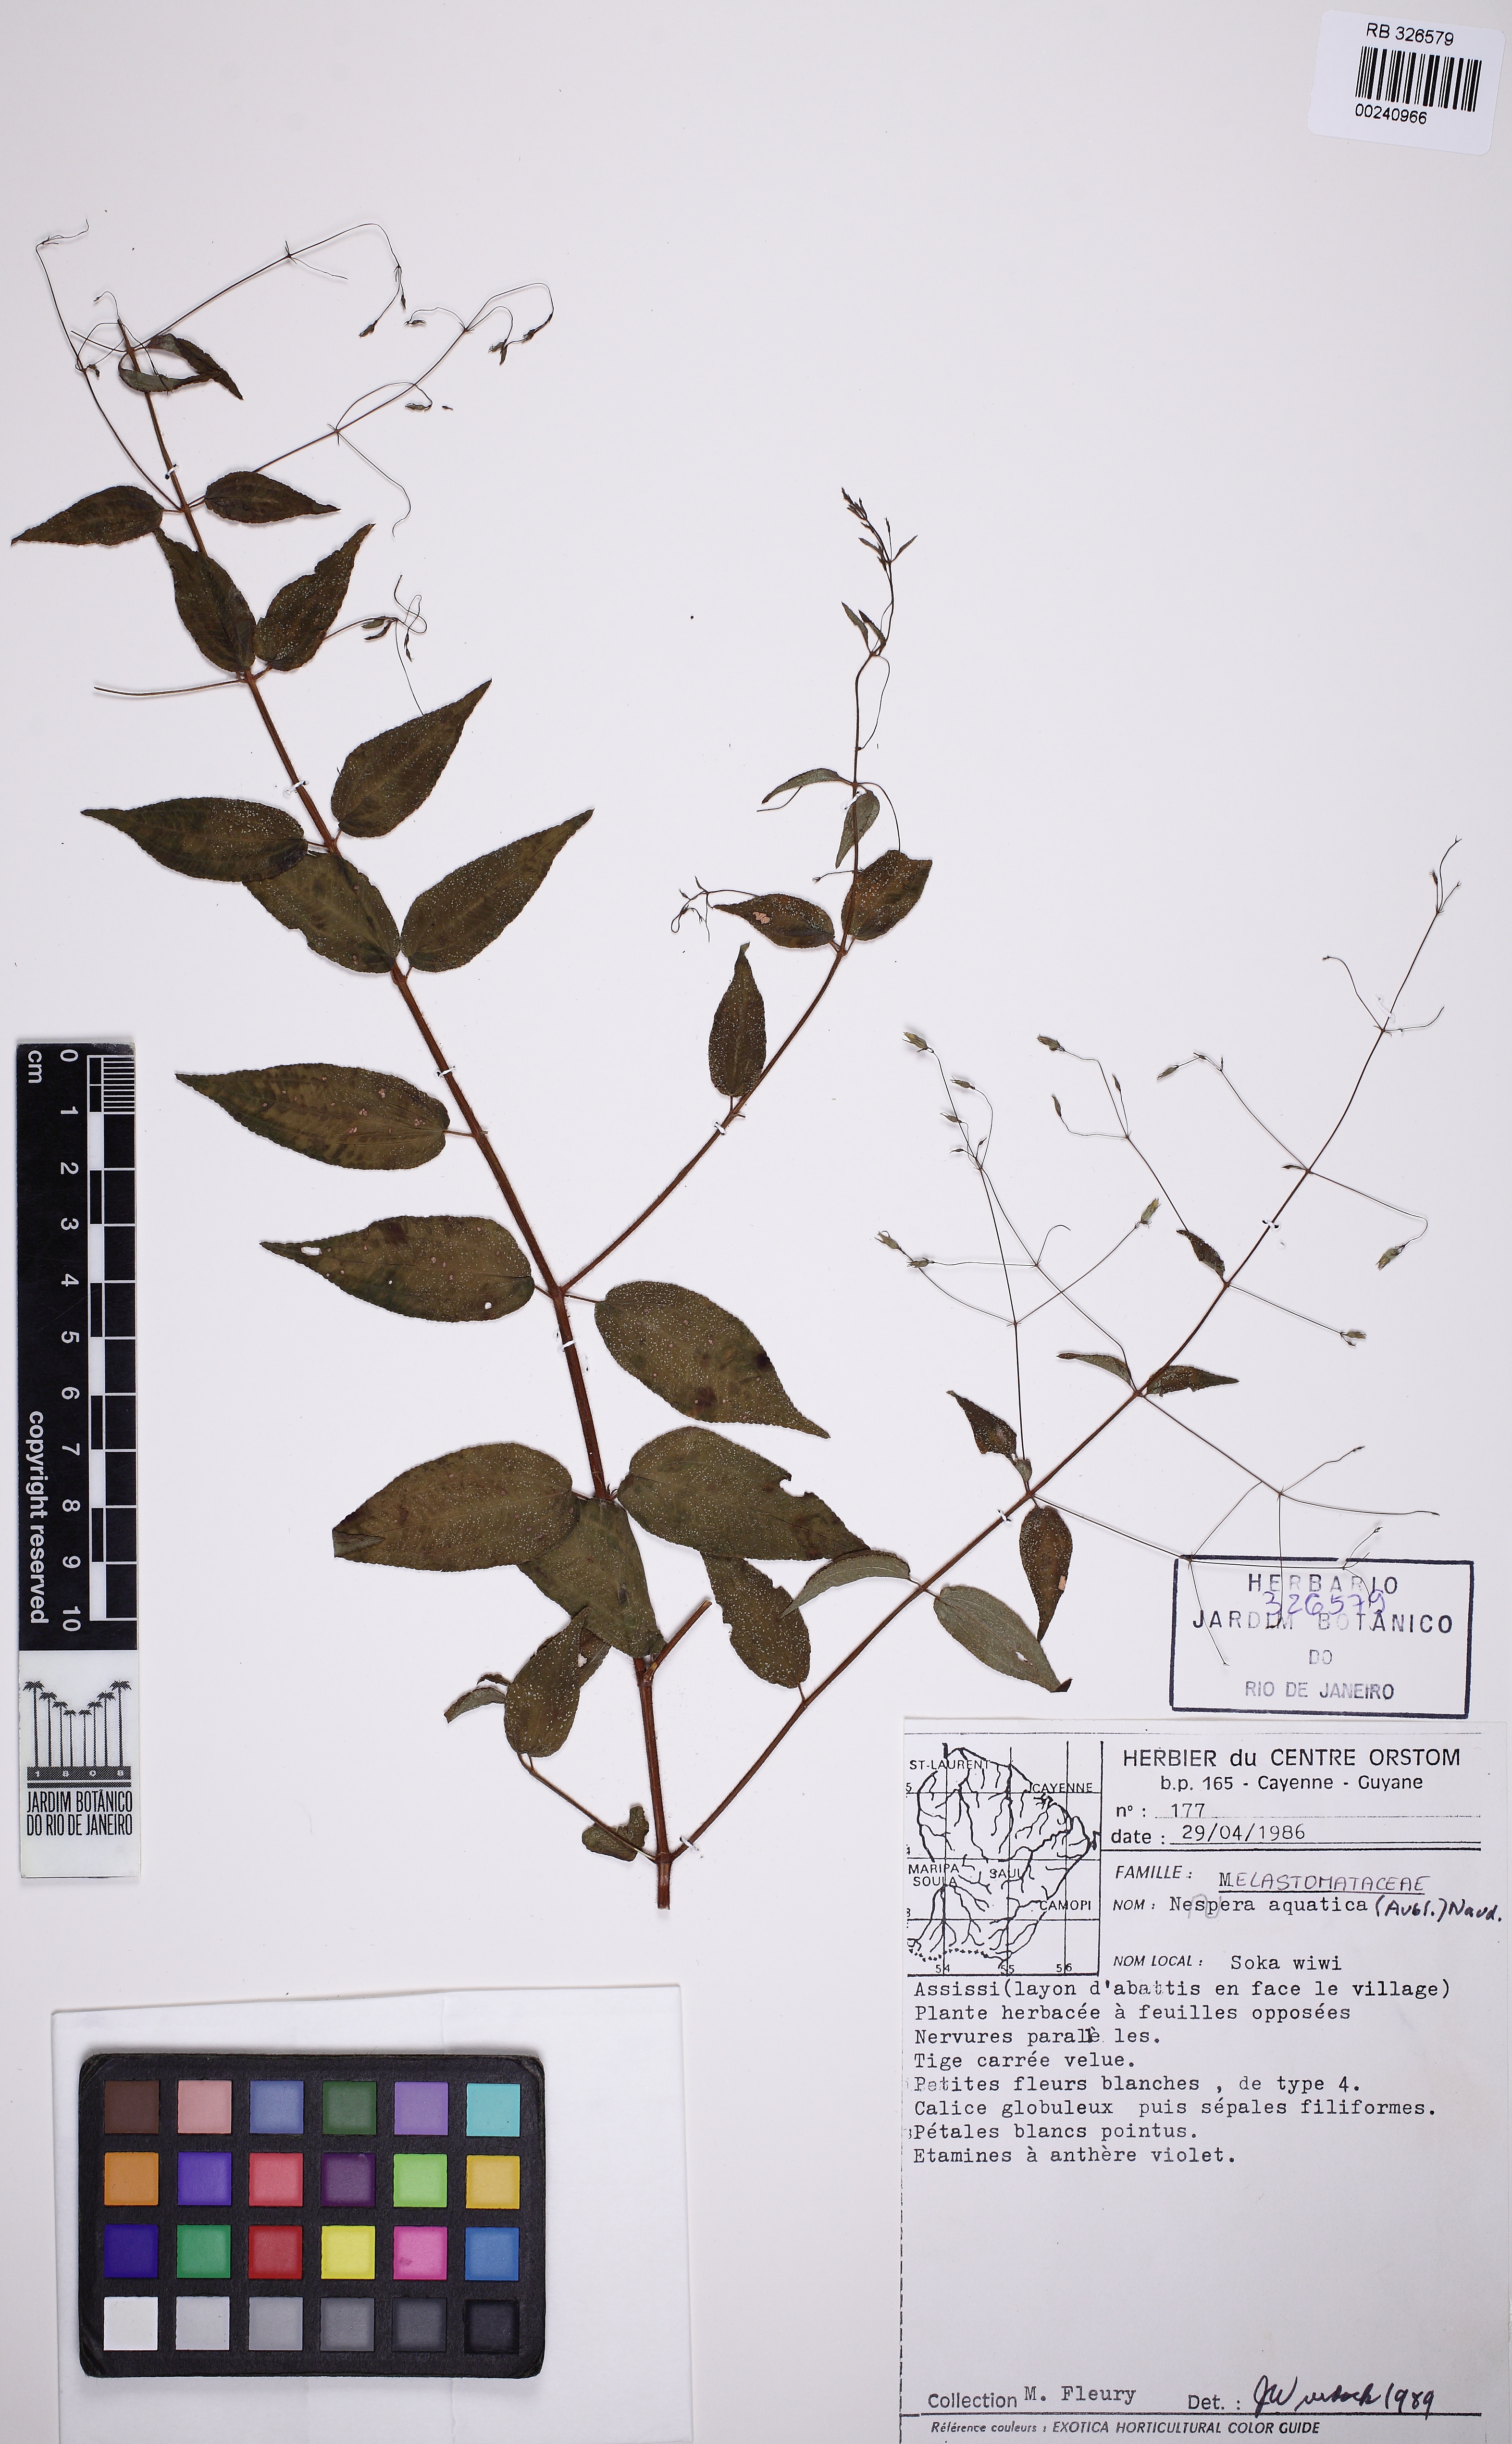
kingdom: Plantae
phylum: Tracheophyta
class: Magnoliopsida
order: Myrtales
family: Melastomataceae
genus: Nepsera
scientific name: Nepsera aquatica
